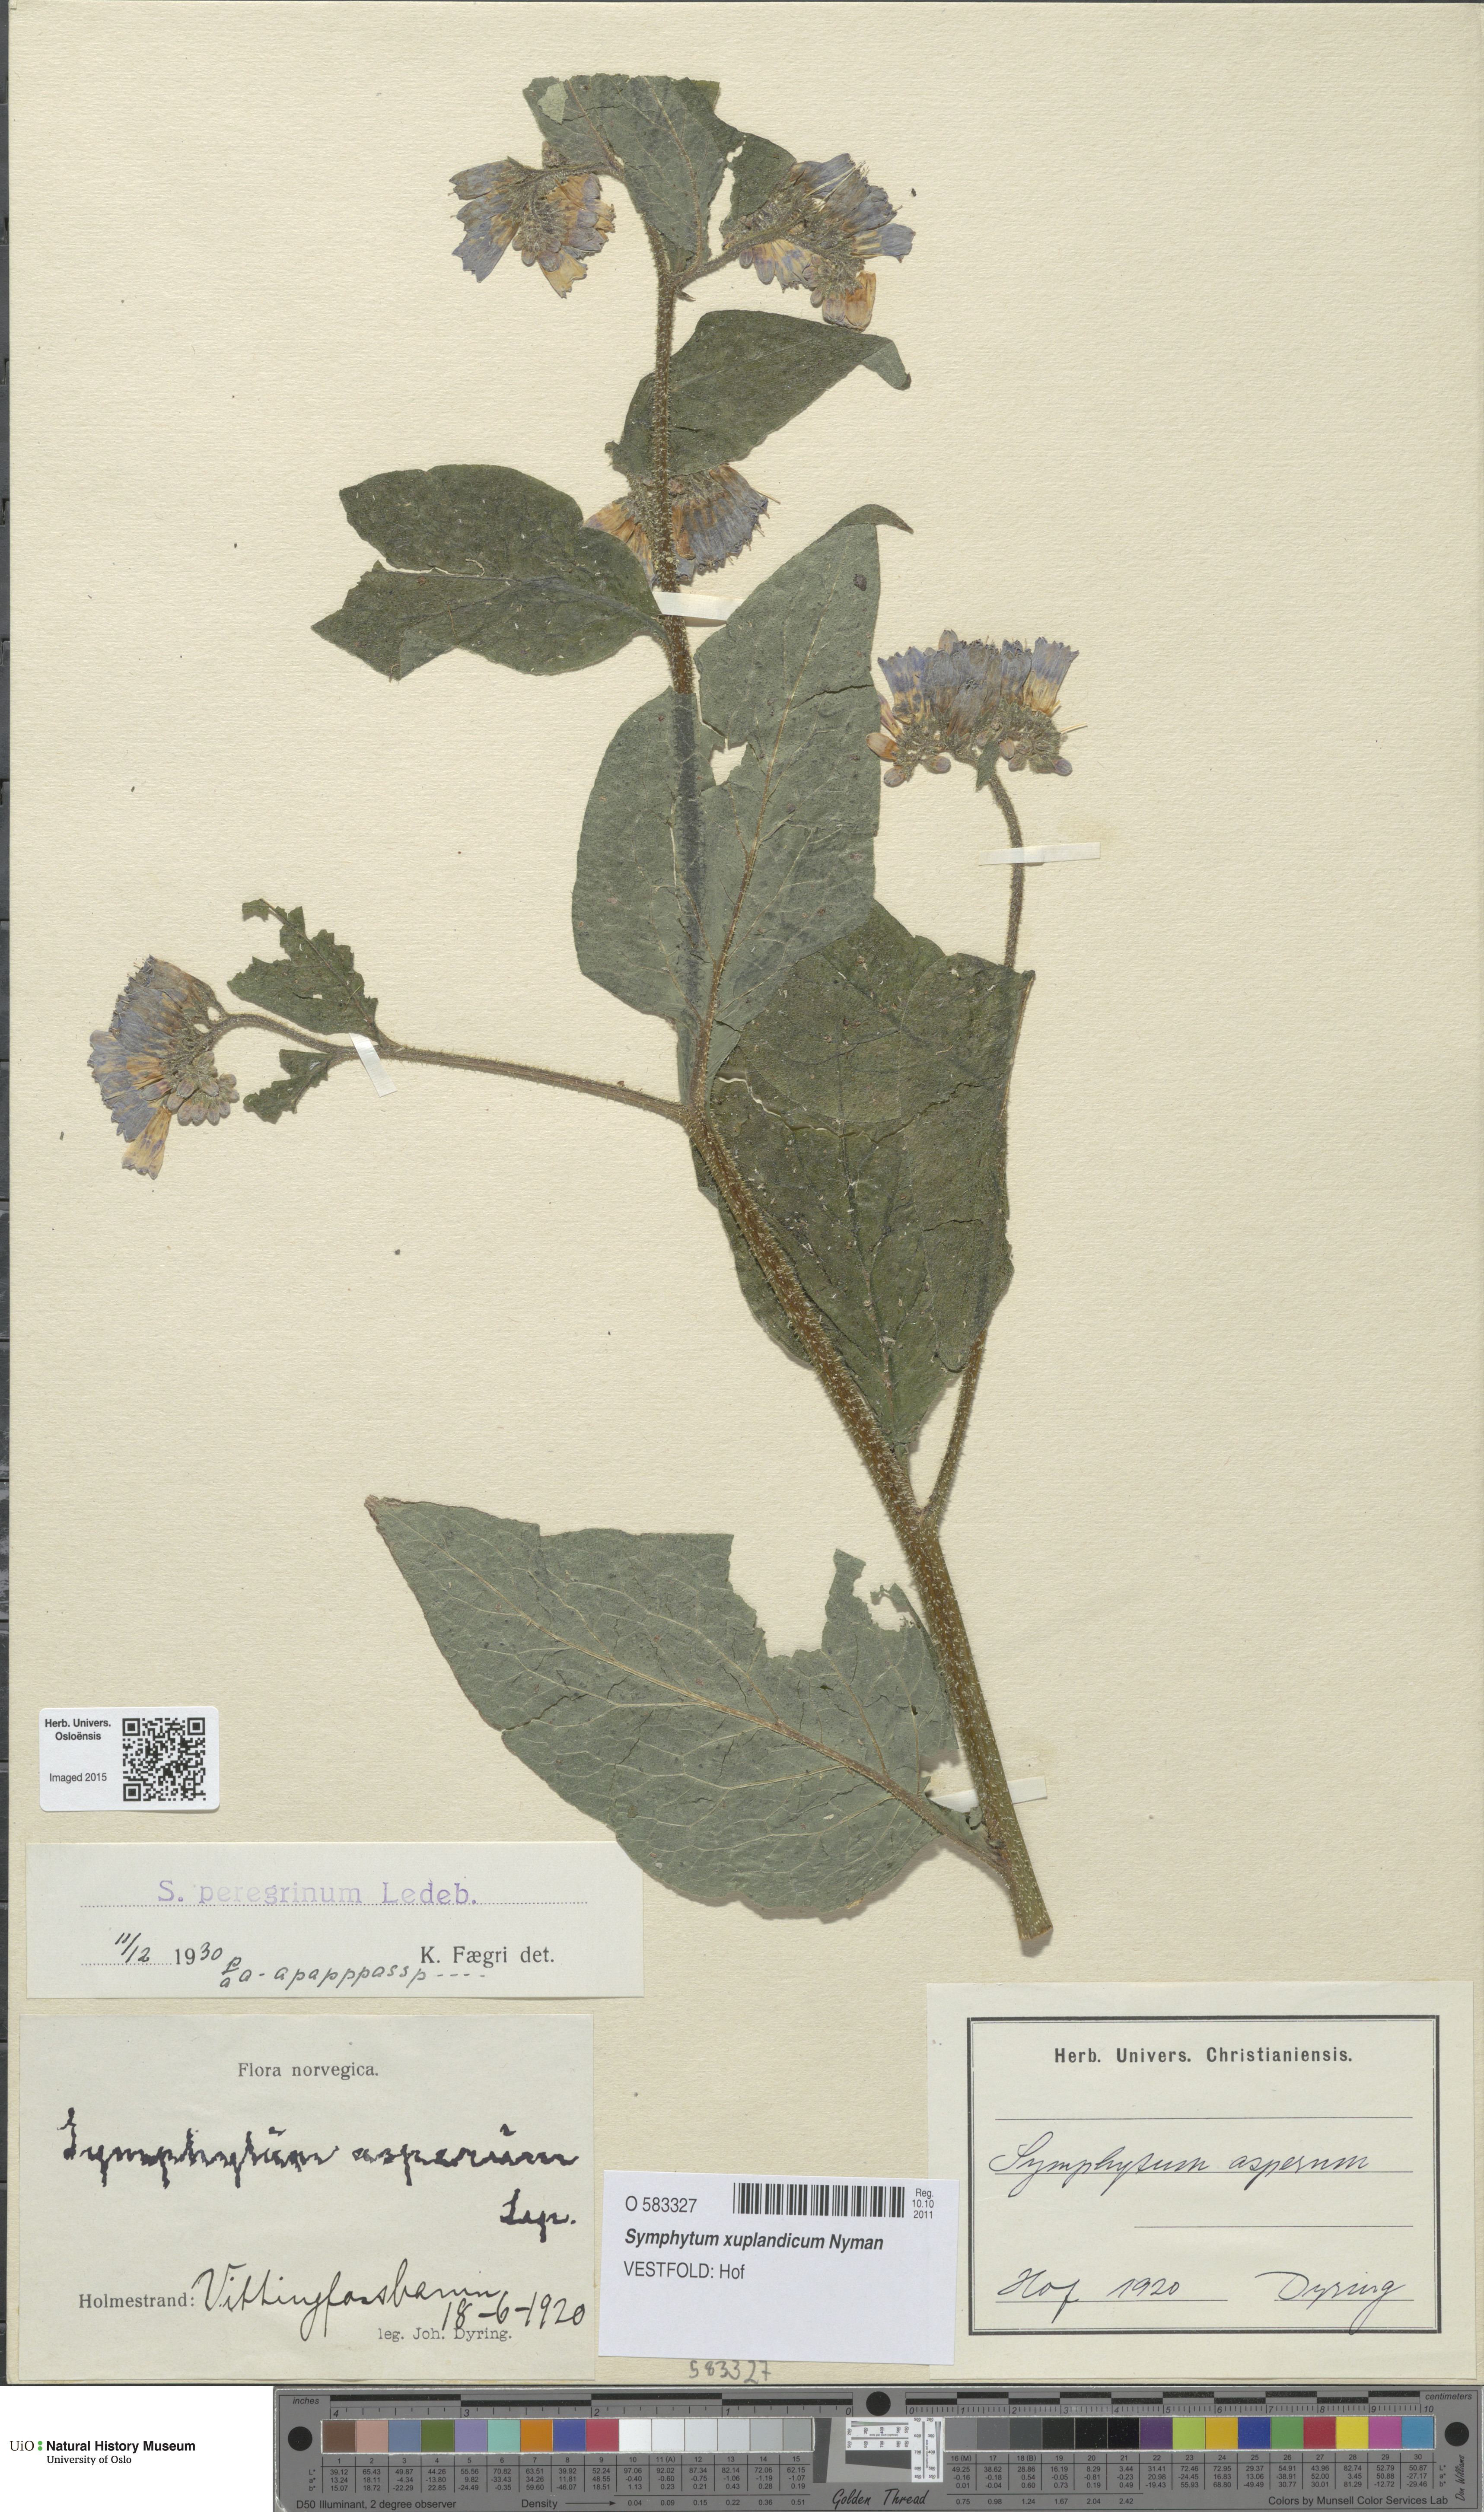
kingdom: Plantae
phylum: Tracheophyta
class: Magnoliopsida
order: Boraginales
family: Boraginaceae
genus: Symphytum
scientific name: Symphytum uplandicum
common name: Russian comfrey
